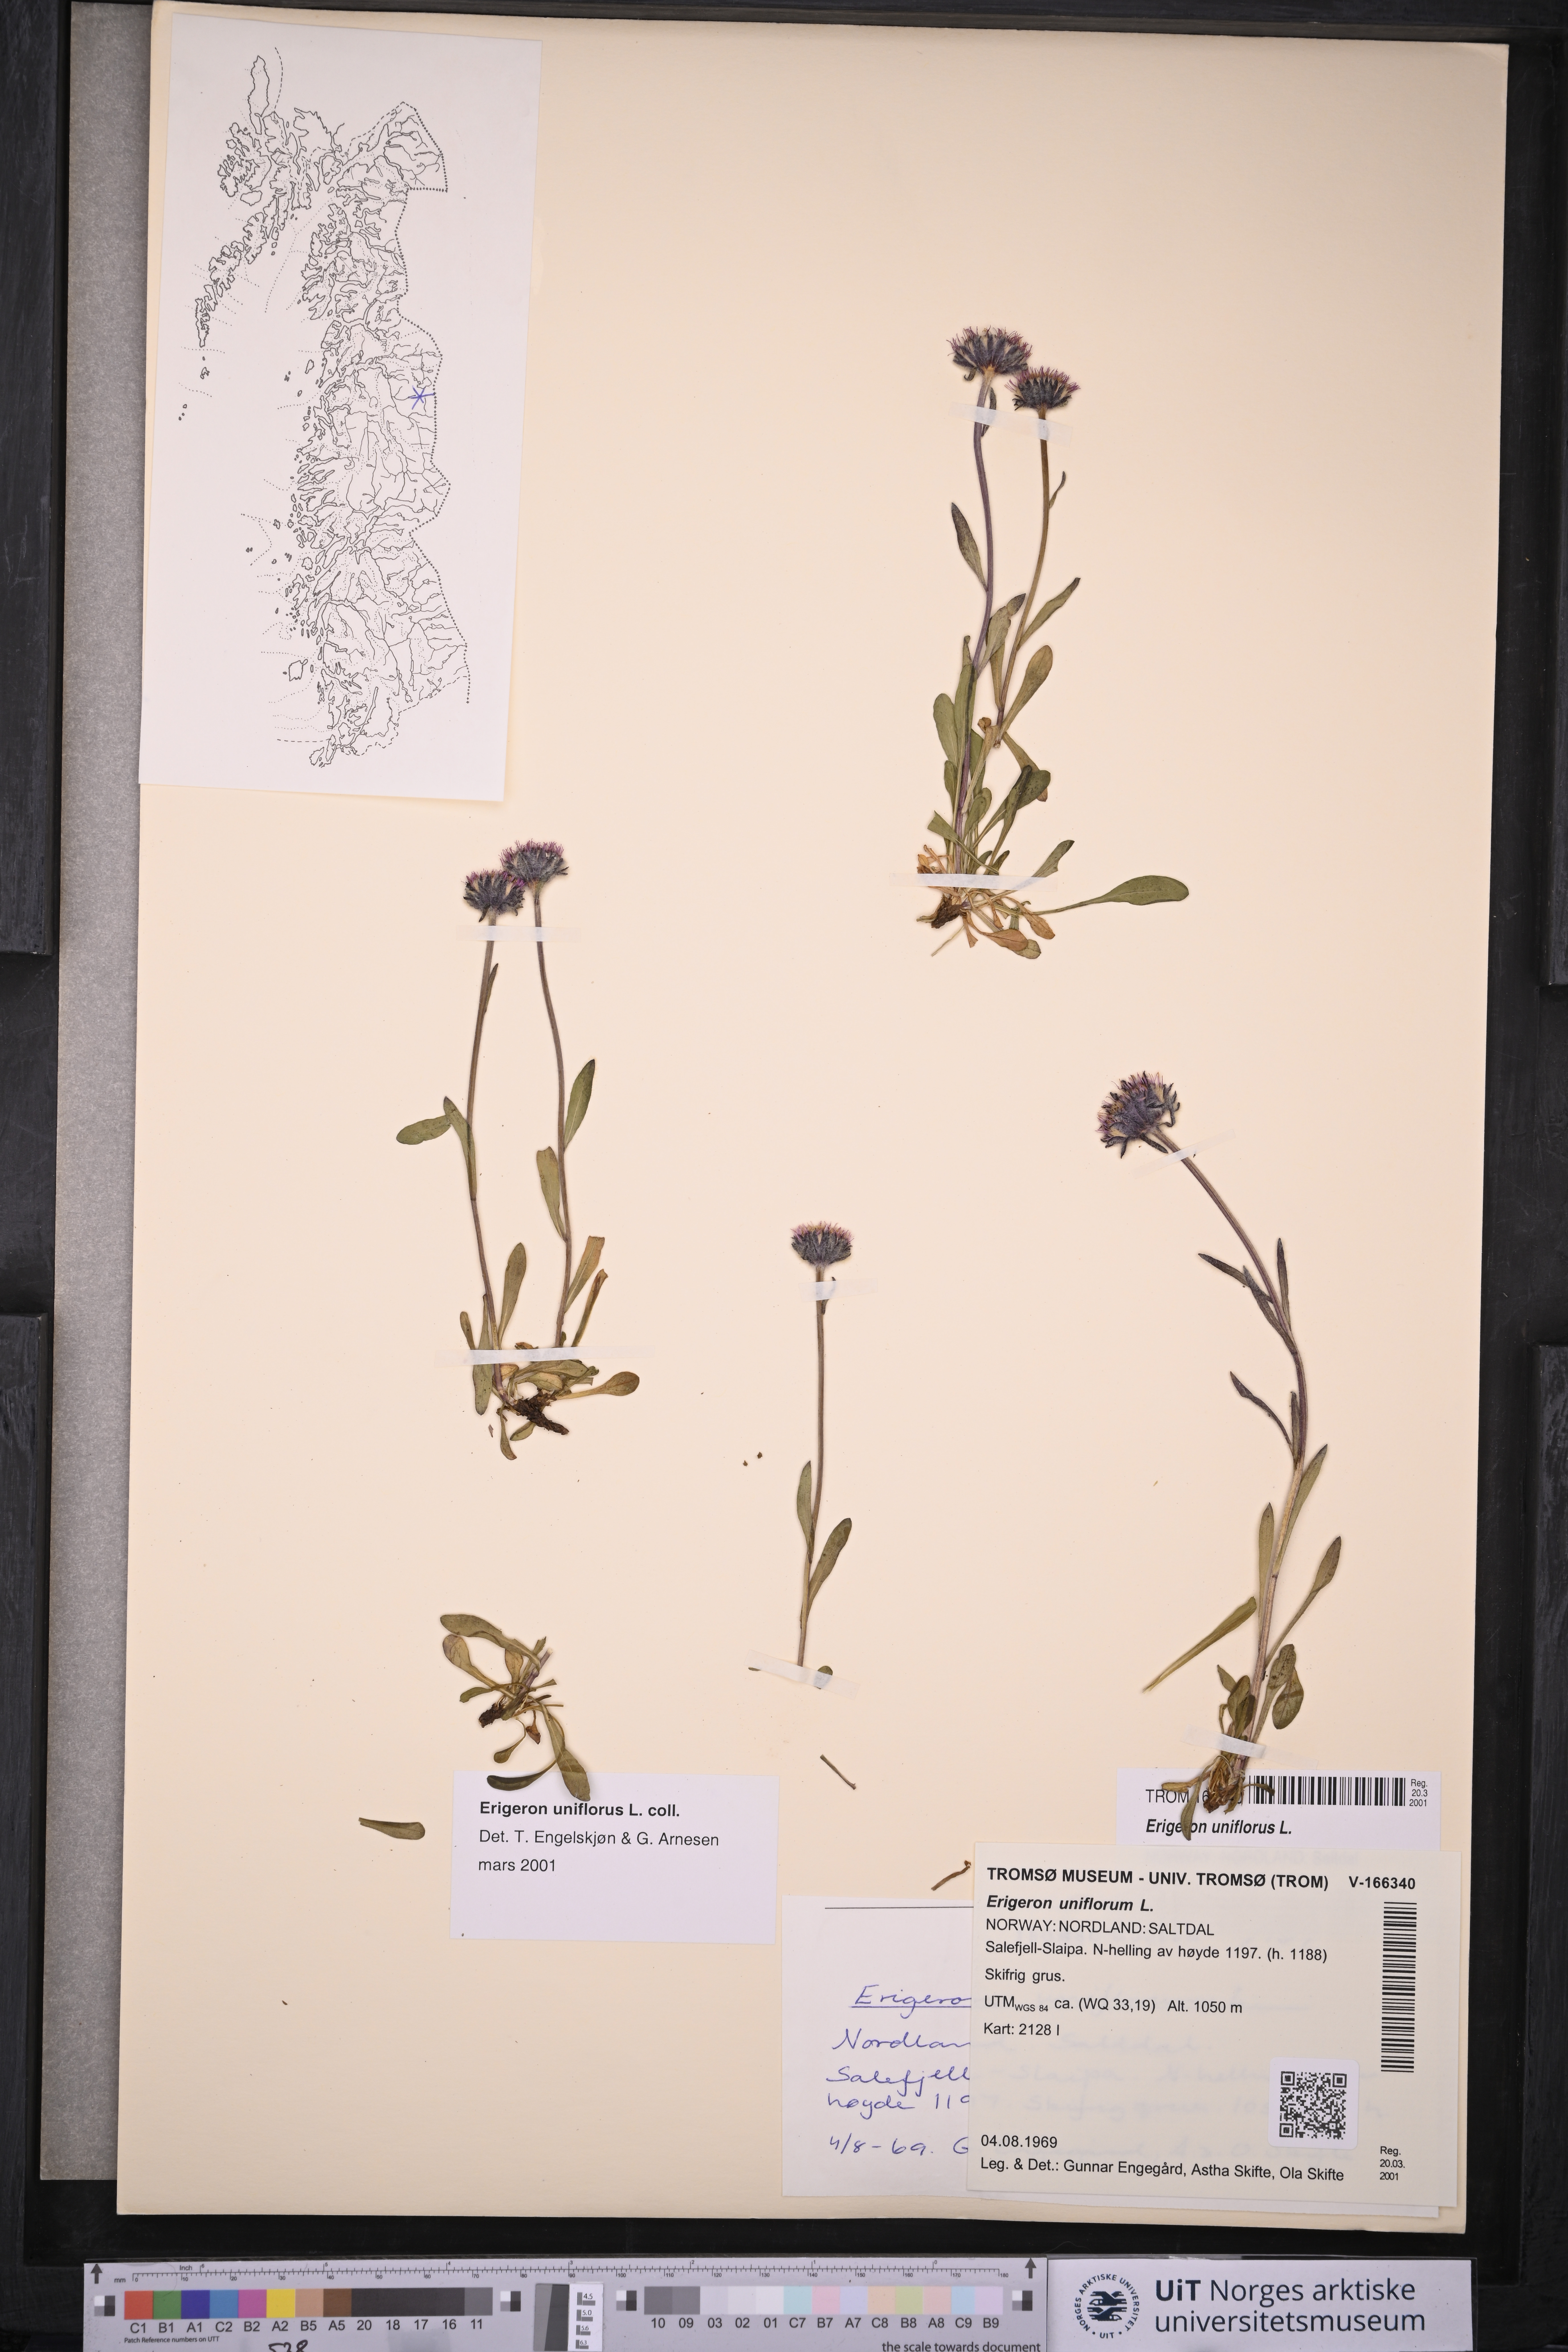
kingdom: Plantae
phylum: Tracheophyta
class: Magnoliopsida
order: Asterales
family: Asteraceae
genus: Erigeron
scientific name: Erigeron uniflorus
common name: Northern daisy
